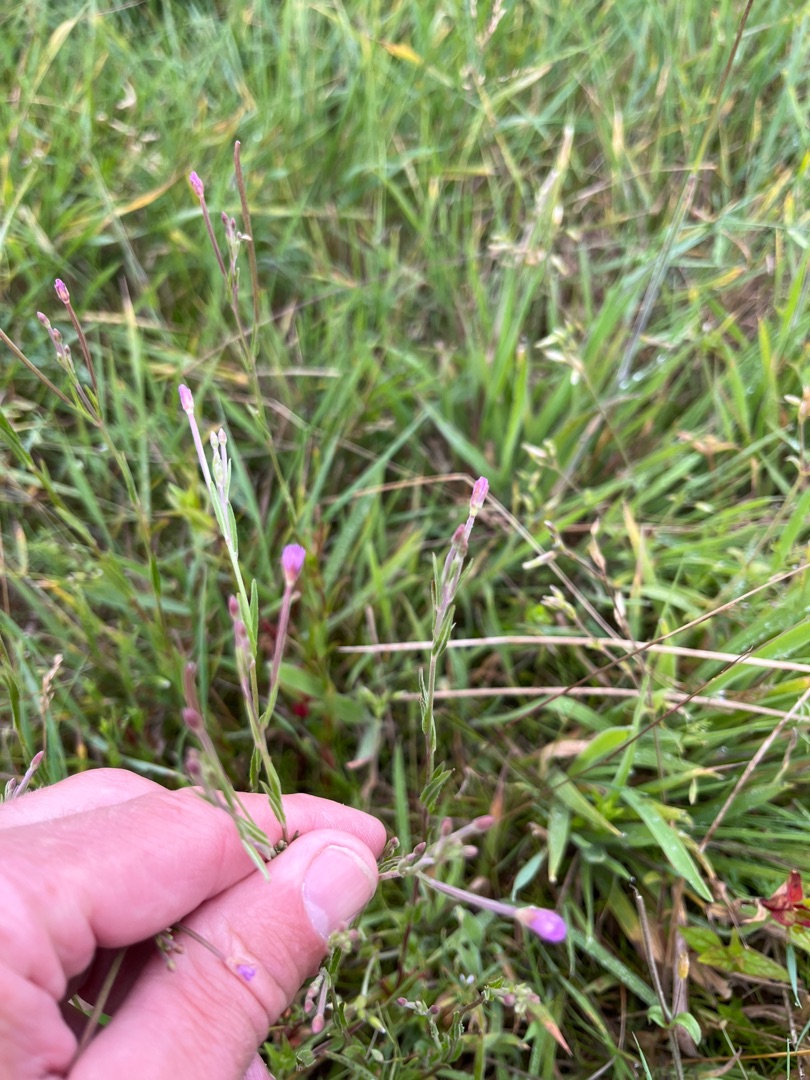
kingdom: Plantae
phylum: Tracheophyta
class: Magnoliopsida
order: Myrtales
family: Onagraceae
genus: Epilobium
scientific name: Epilobium
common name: Dueurtslægten
